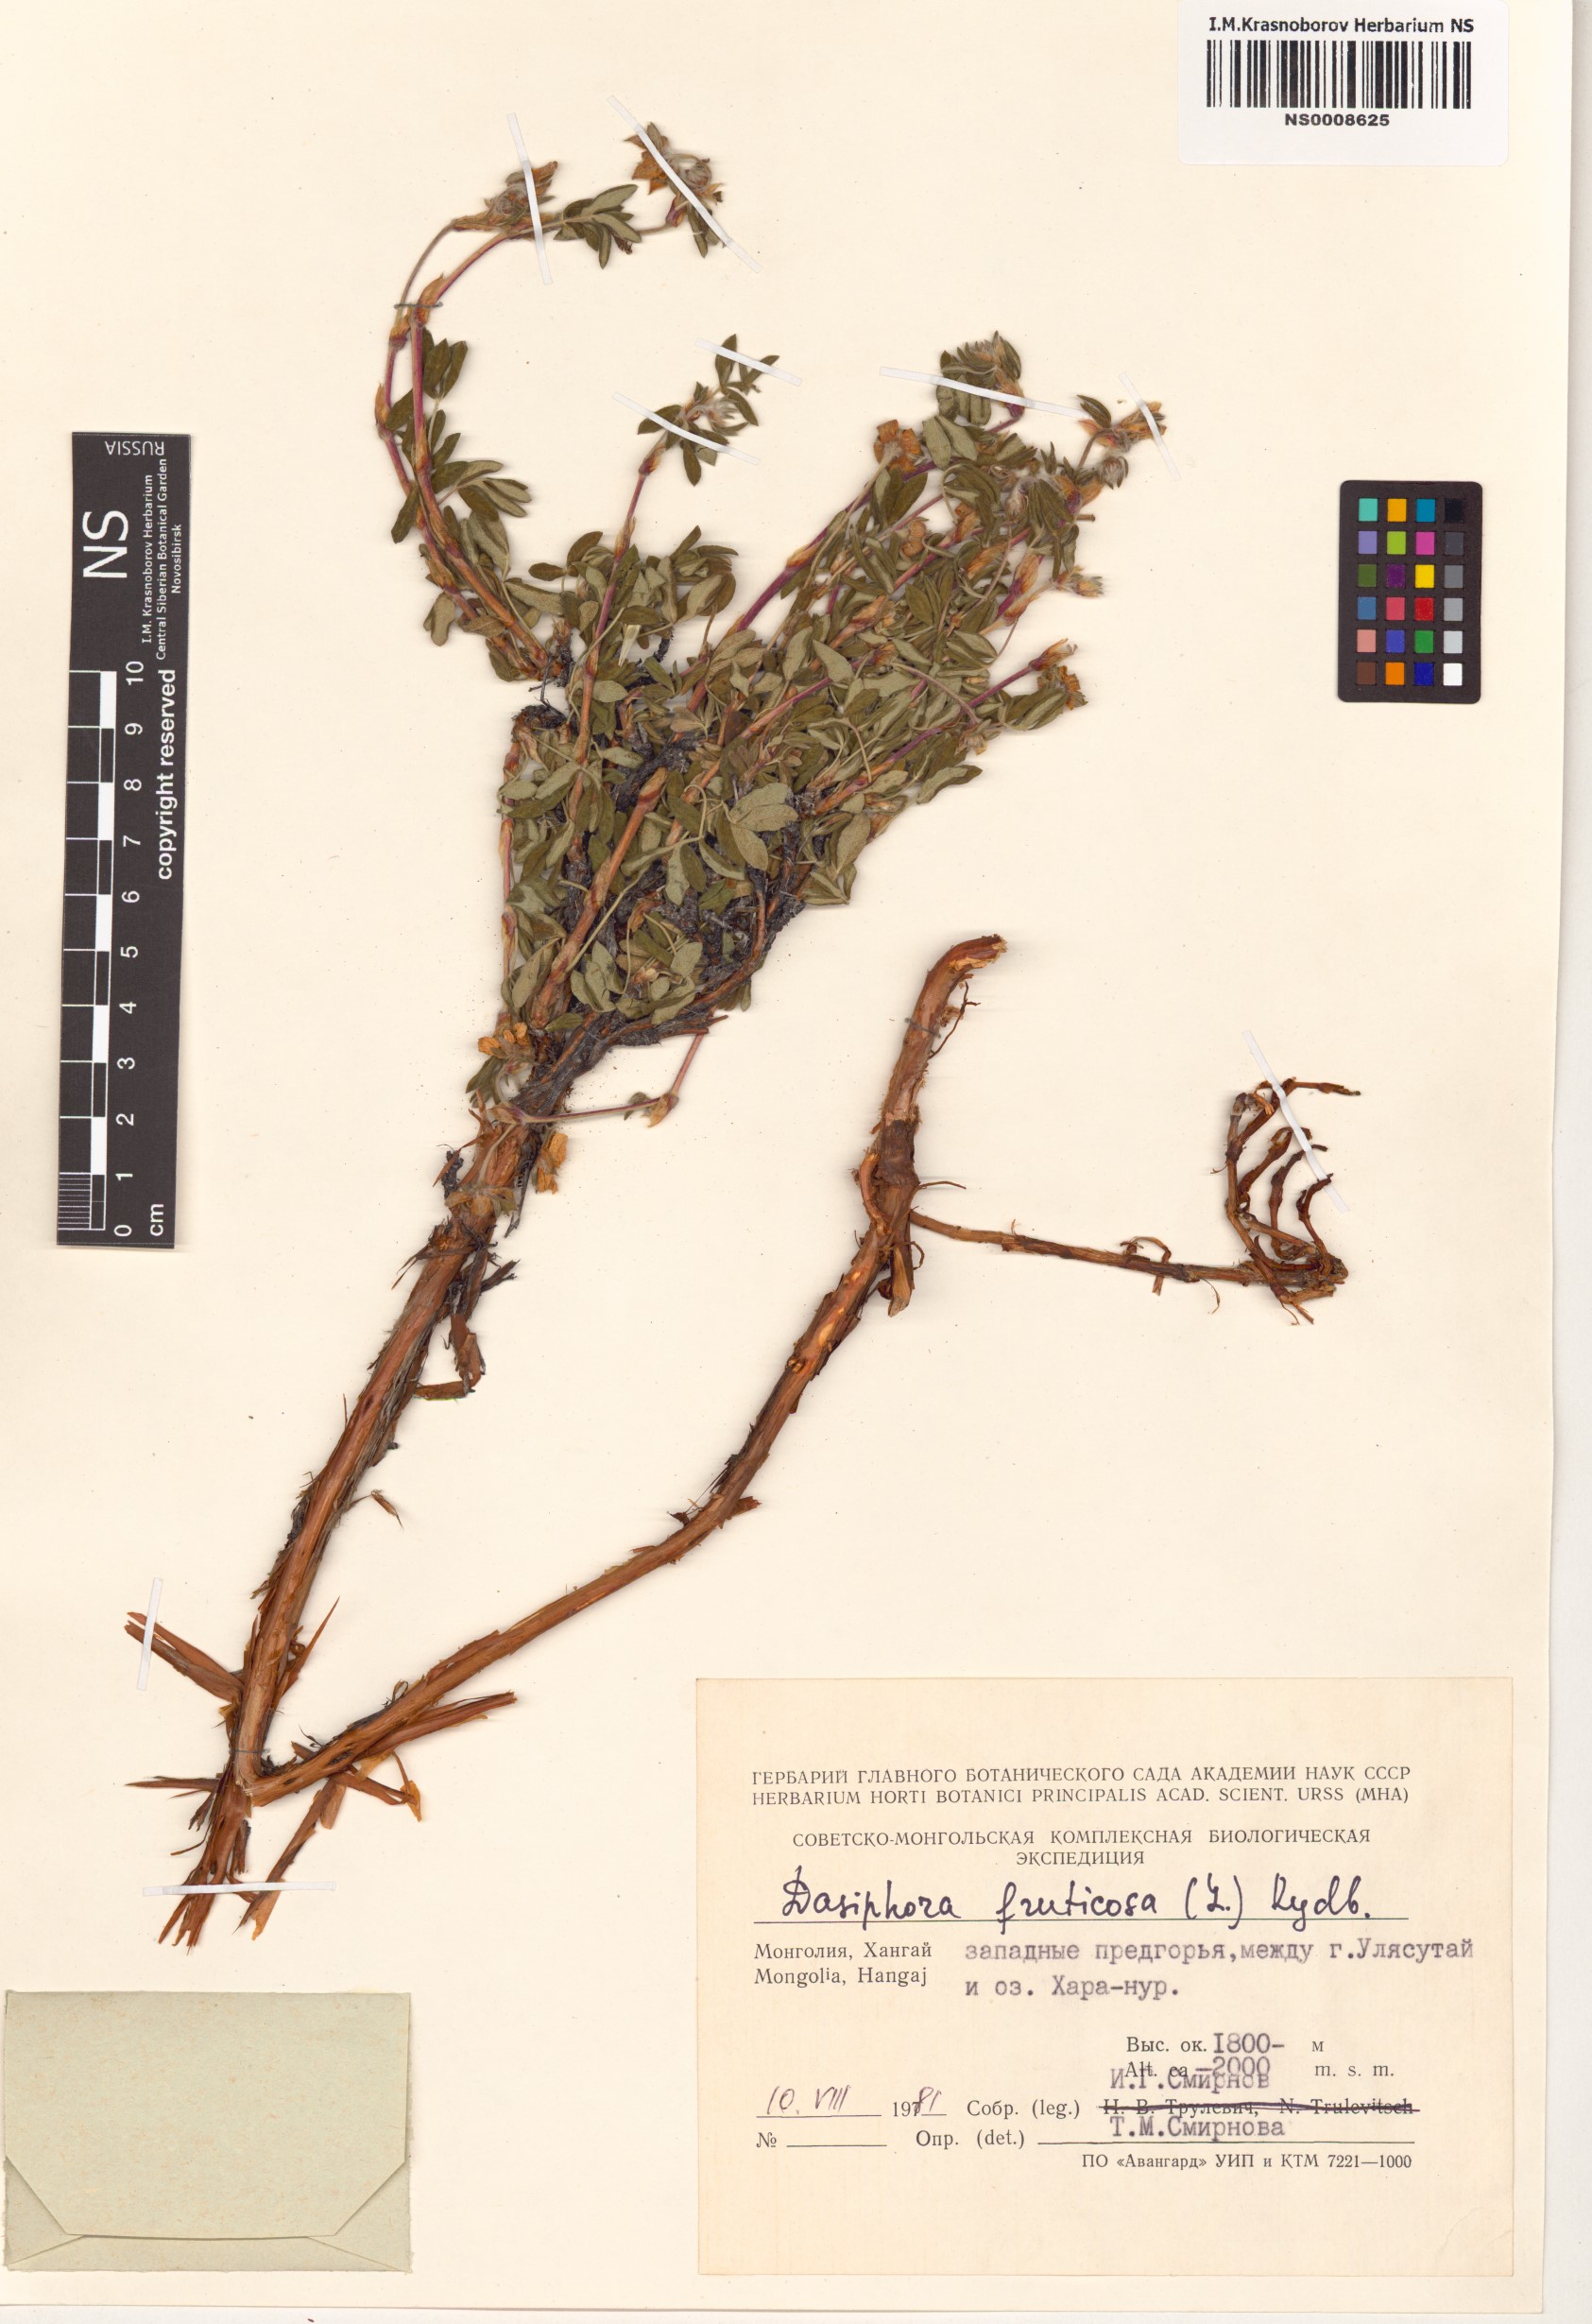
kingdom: Plantae
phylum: Tracheophyta
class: Magnoliopsida
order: Rosales
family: Rosaceae
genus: Dasiphora
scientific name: Dasiphora fruticosa
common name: Shrubby cinquefoil
